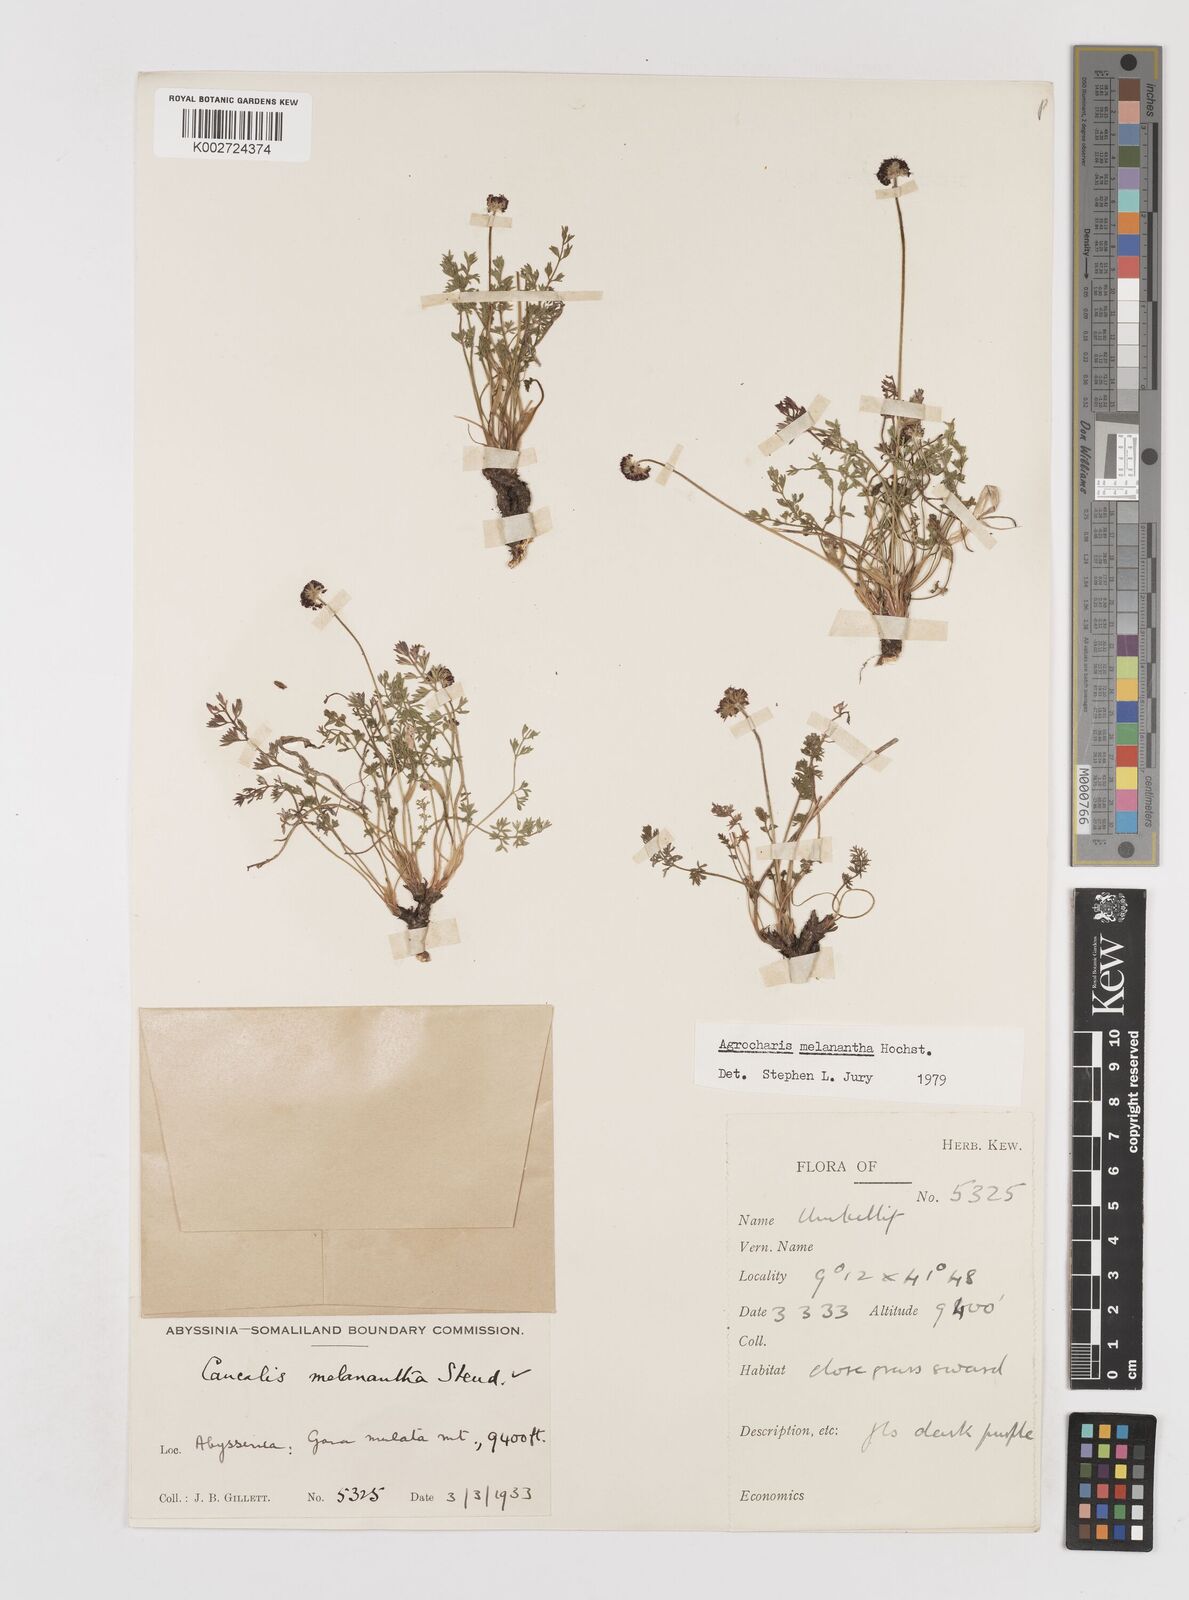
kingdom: Plantae
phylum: Tracheophyta
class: Magnoliopsida
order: Apiales
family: Apiaceae
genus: Daucus
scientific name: Daucus melananthus
